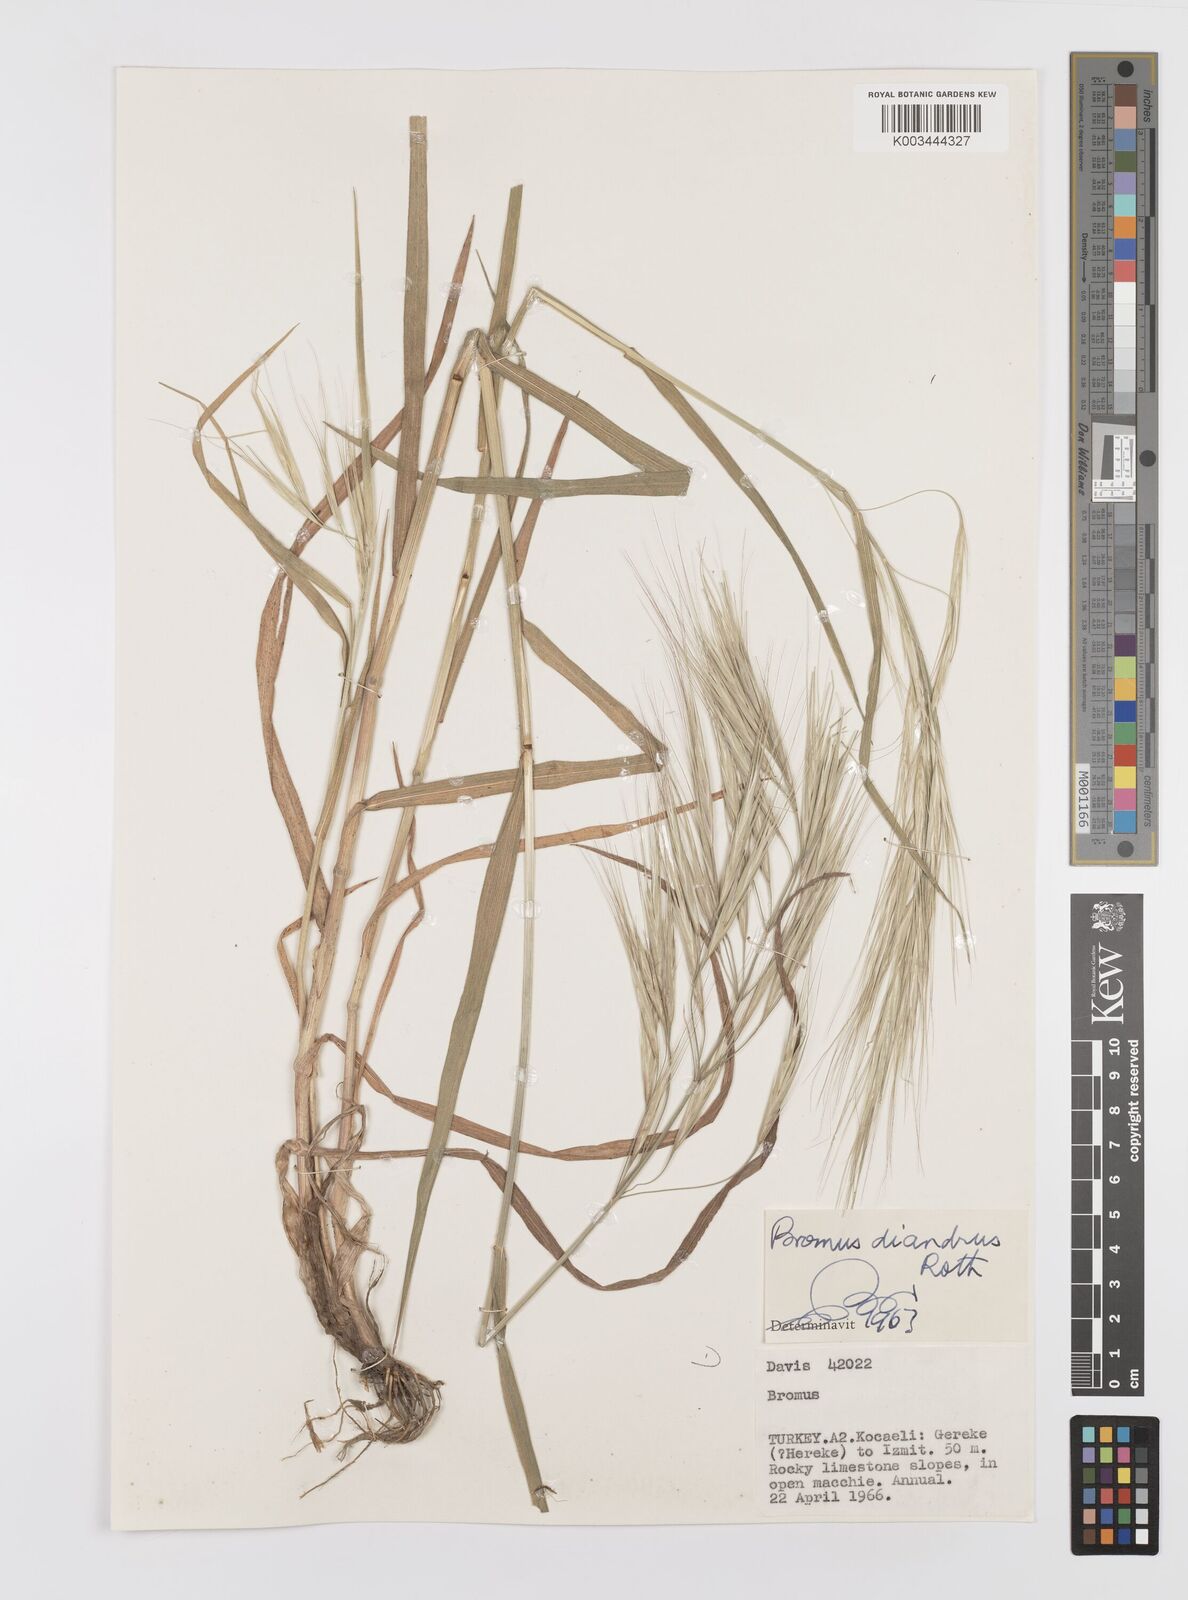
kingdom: Plantae
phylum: Tracheophyta
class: Liliopsida
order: Poales
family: Poaceae
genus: Bromus
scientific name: Bromus diandrus
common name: Ripgut brome
